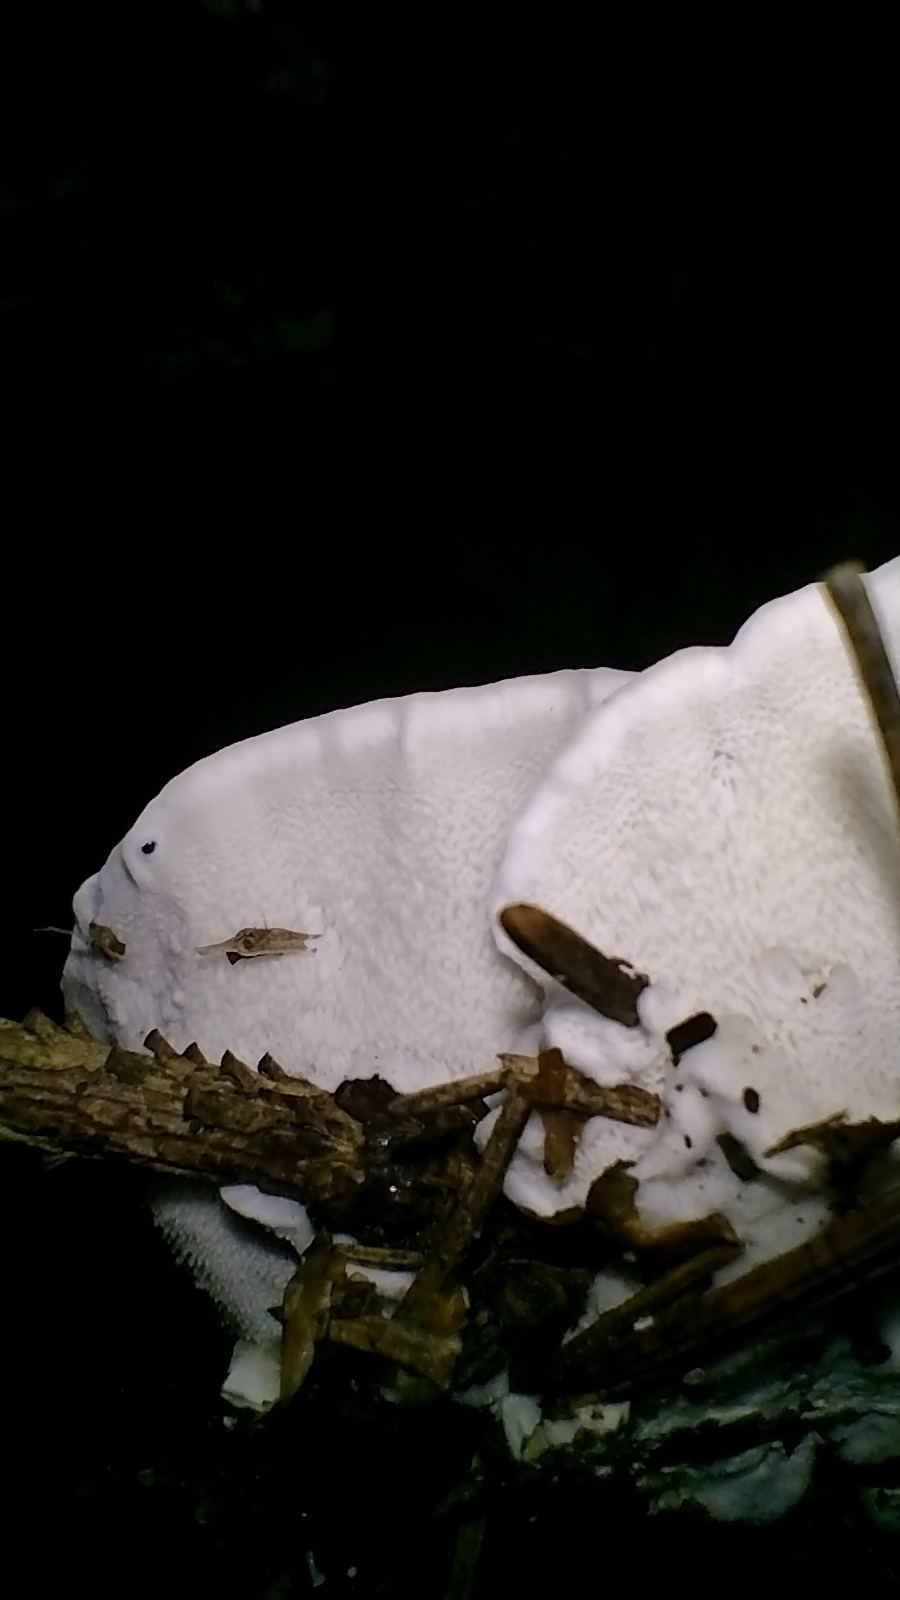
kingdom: Fungi
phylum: Basidiomycota
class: Agaricomycetes
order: Polyporales
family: Polyporaceae
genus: Cyanosporus
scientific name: Cyanosporus caesius
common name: blålig kødporesvamp
